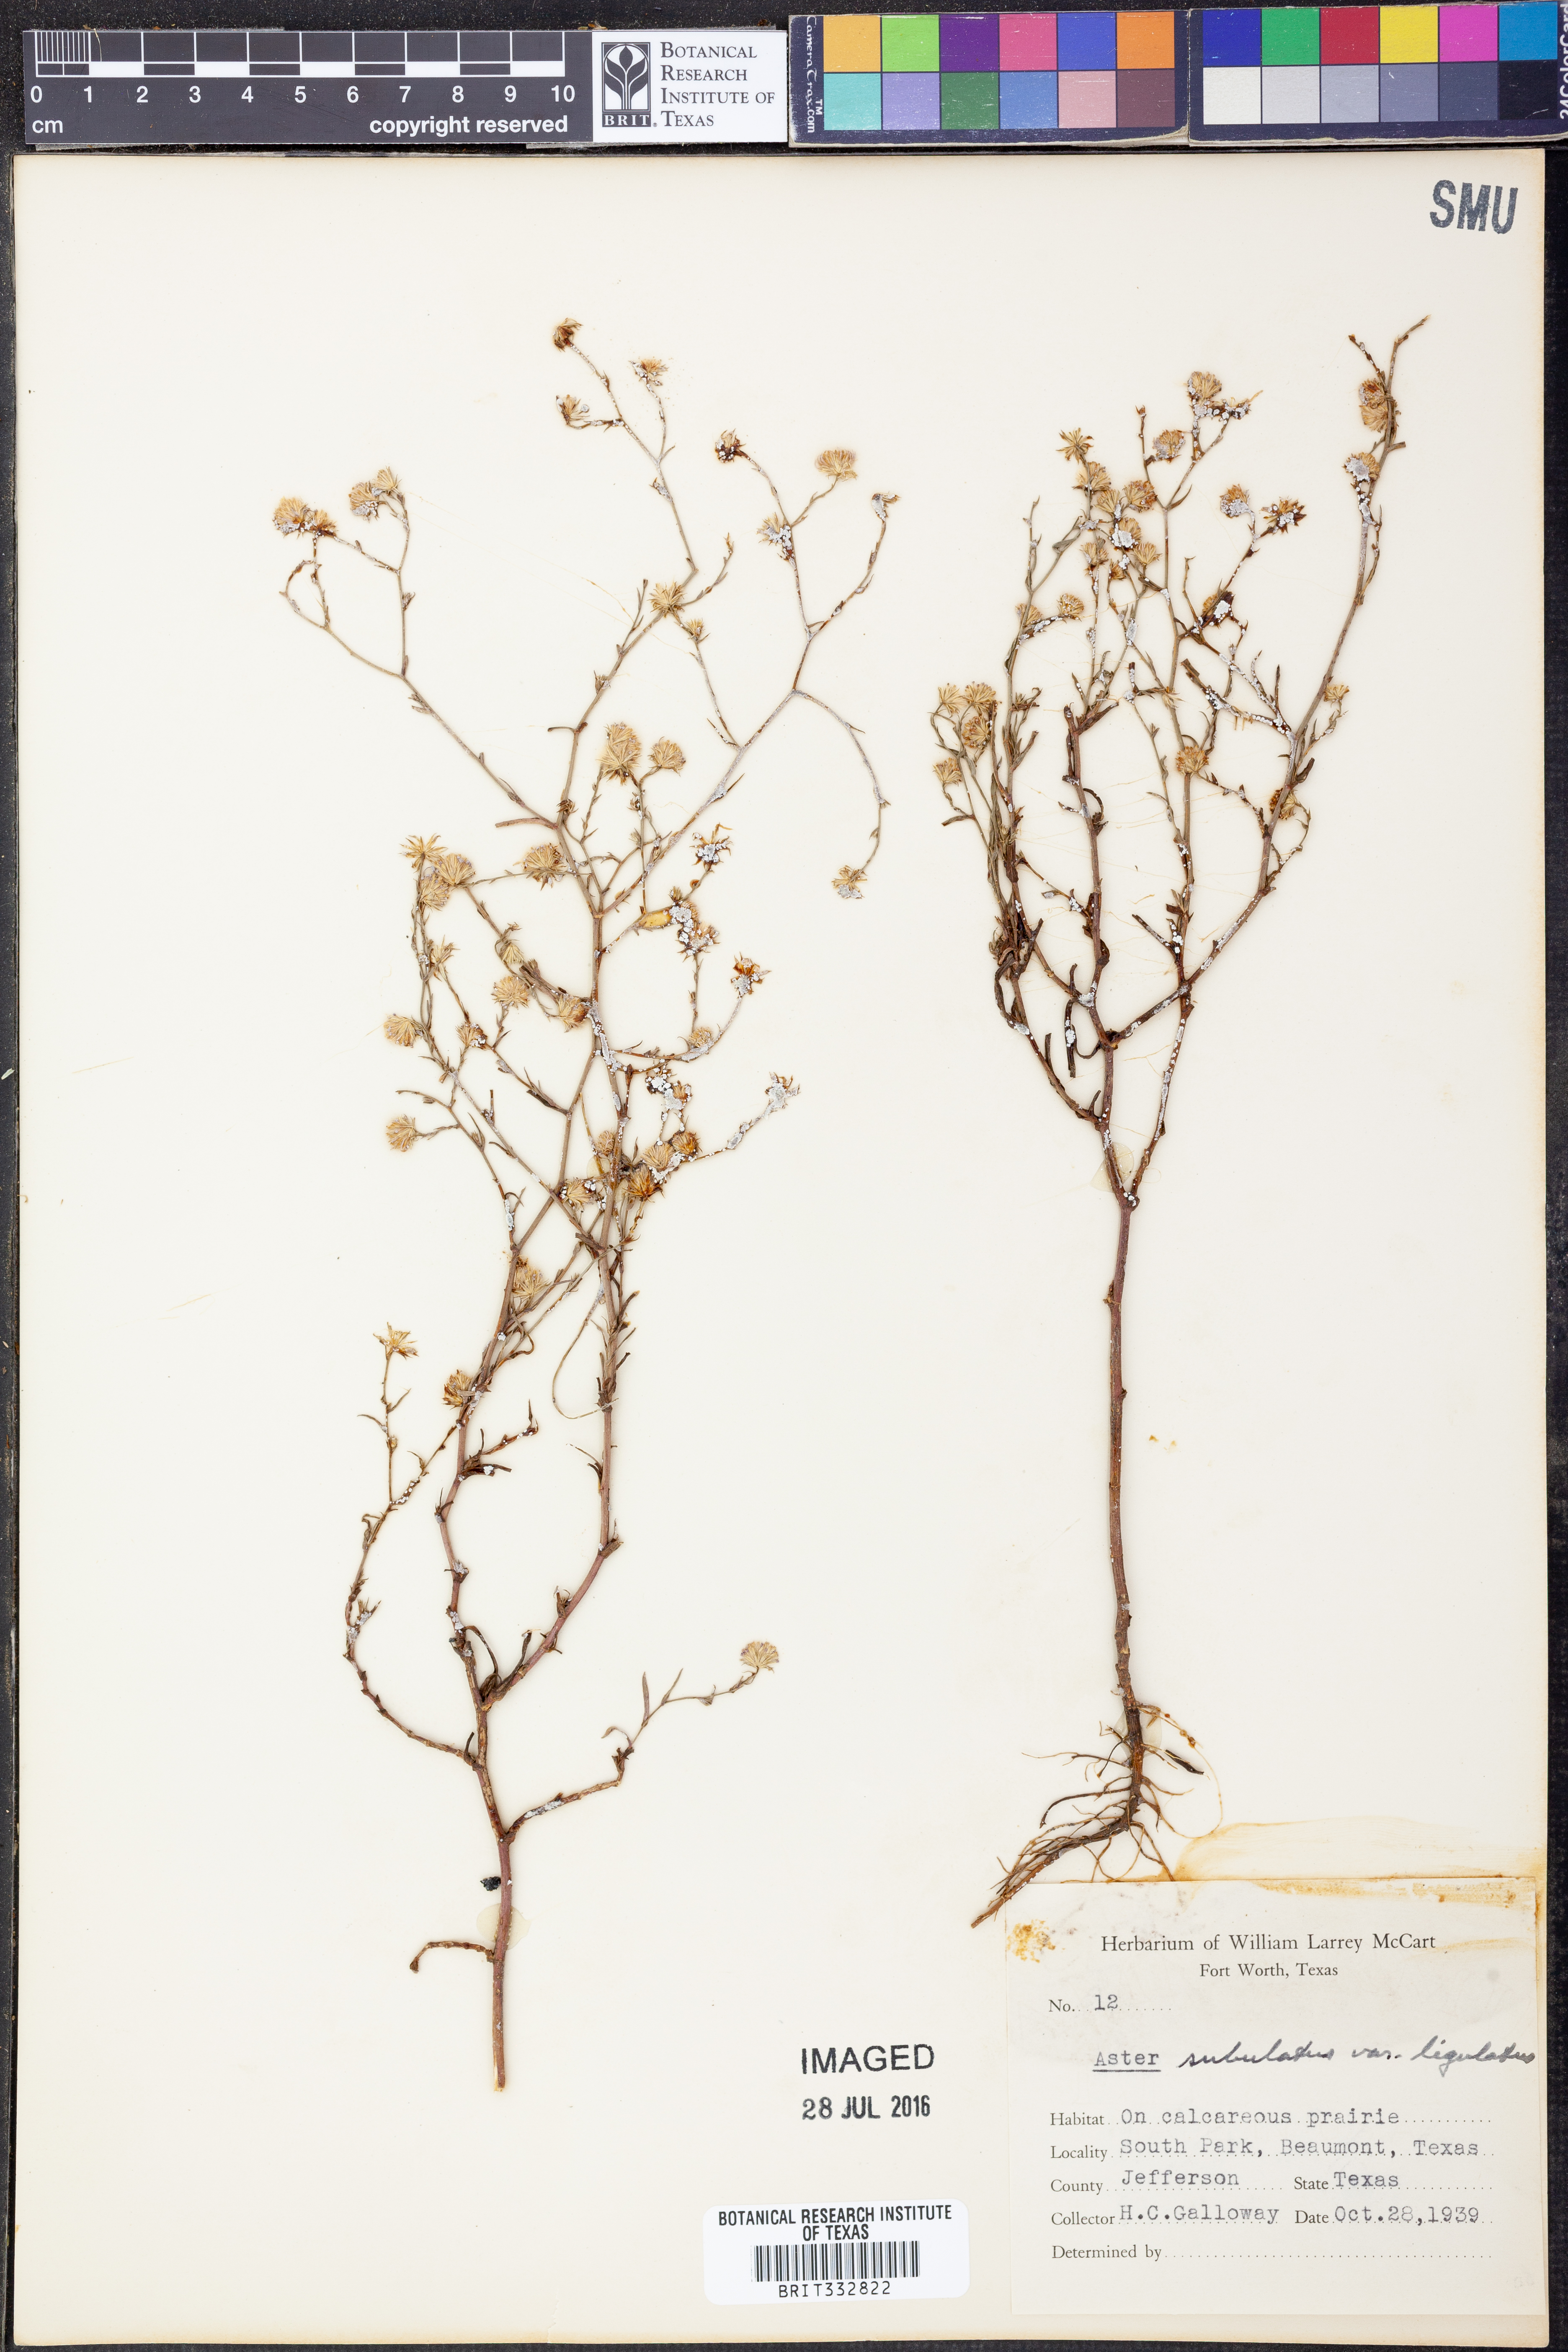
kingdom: Plantae
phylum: Tracheophyta
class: Magnoliopsida
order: Asterales
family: Asteraceae
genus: Symphyotrichum
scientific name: Symphyotrichum divaricatum
